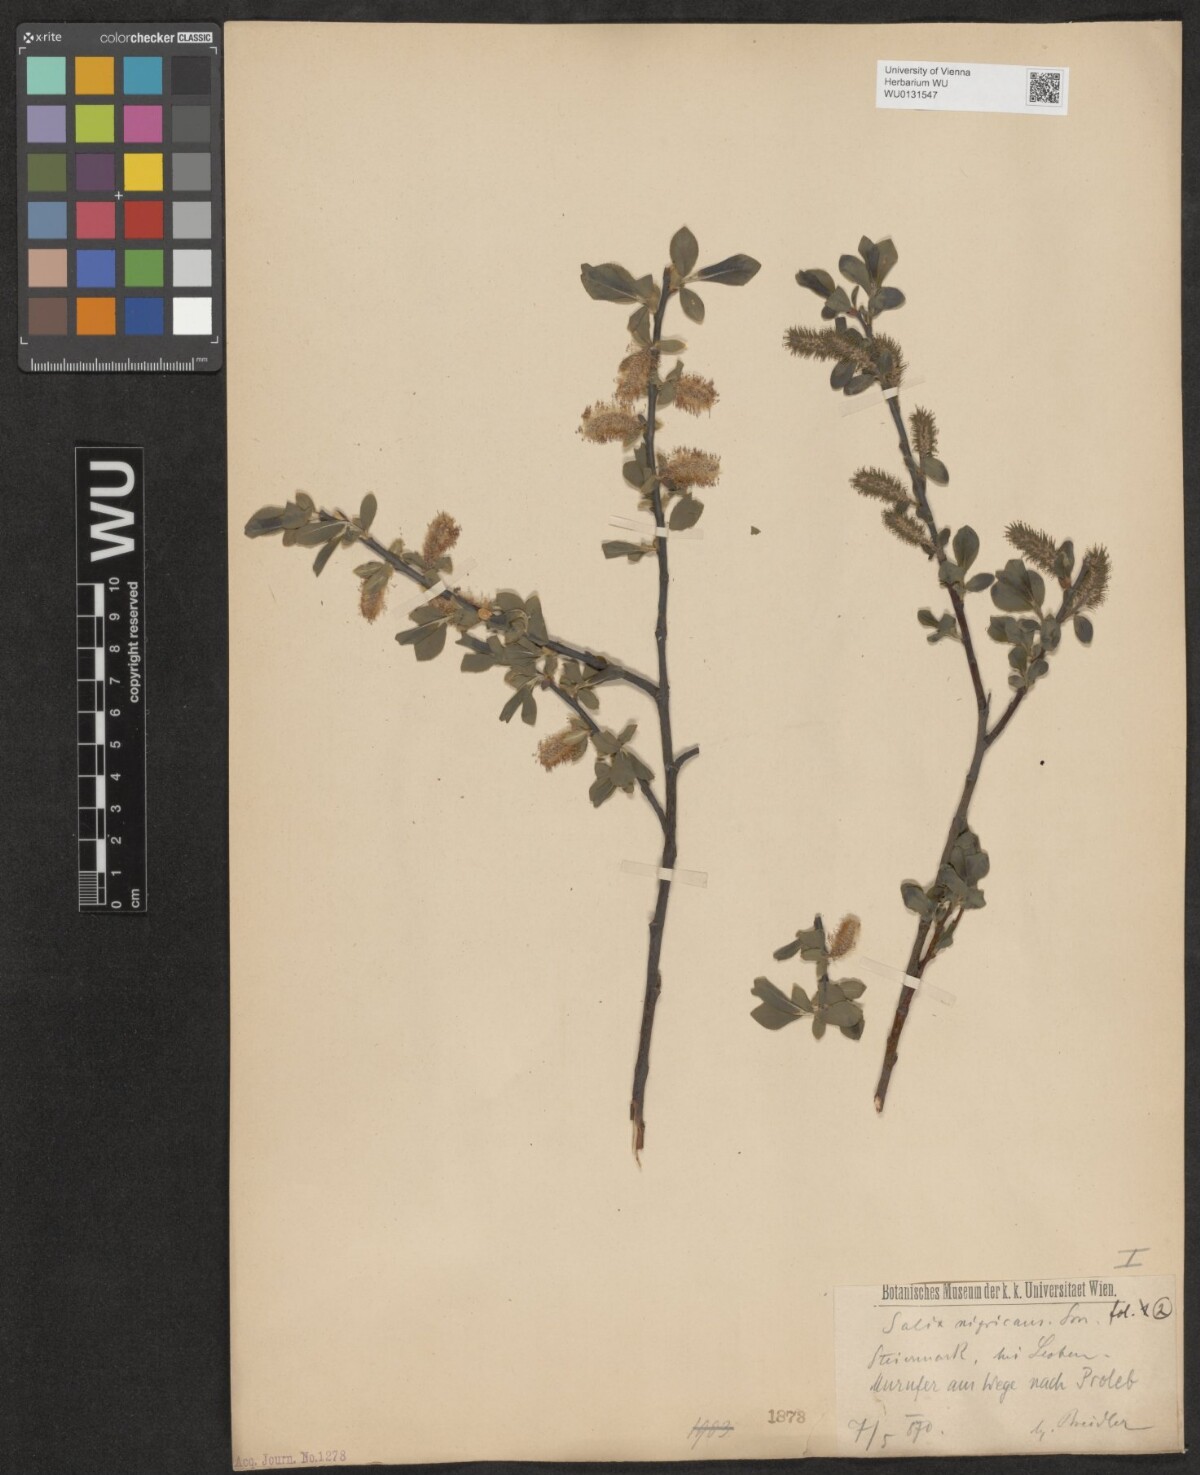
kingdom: Plantae
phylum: Tracheophyta
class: Magnoliopsida
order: Malpighiales
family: Salicaceae
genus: Salix
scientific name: Salix myrsinifolia
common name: Dark-leaved willow
